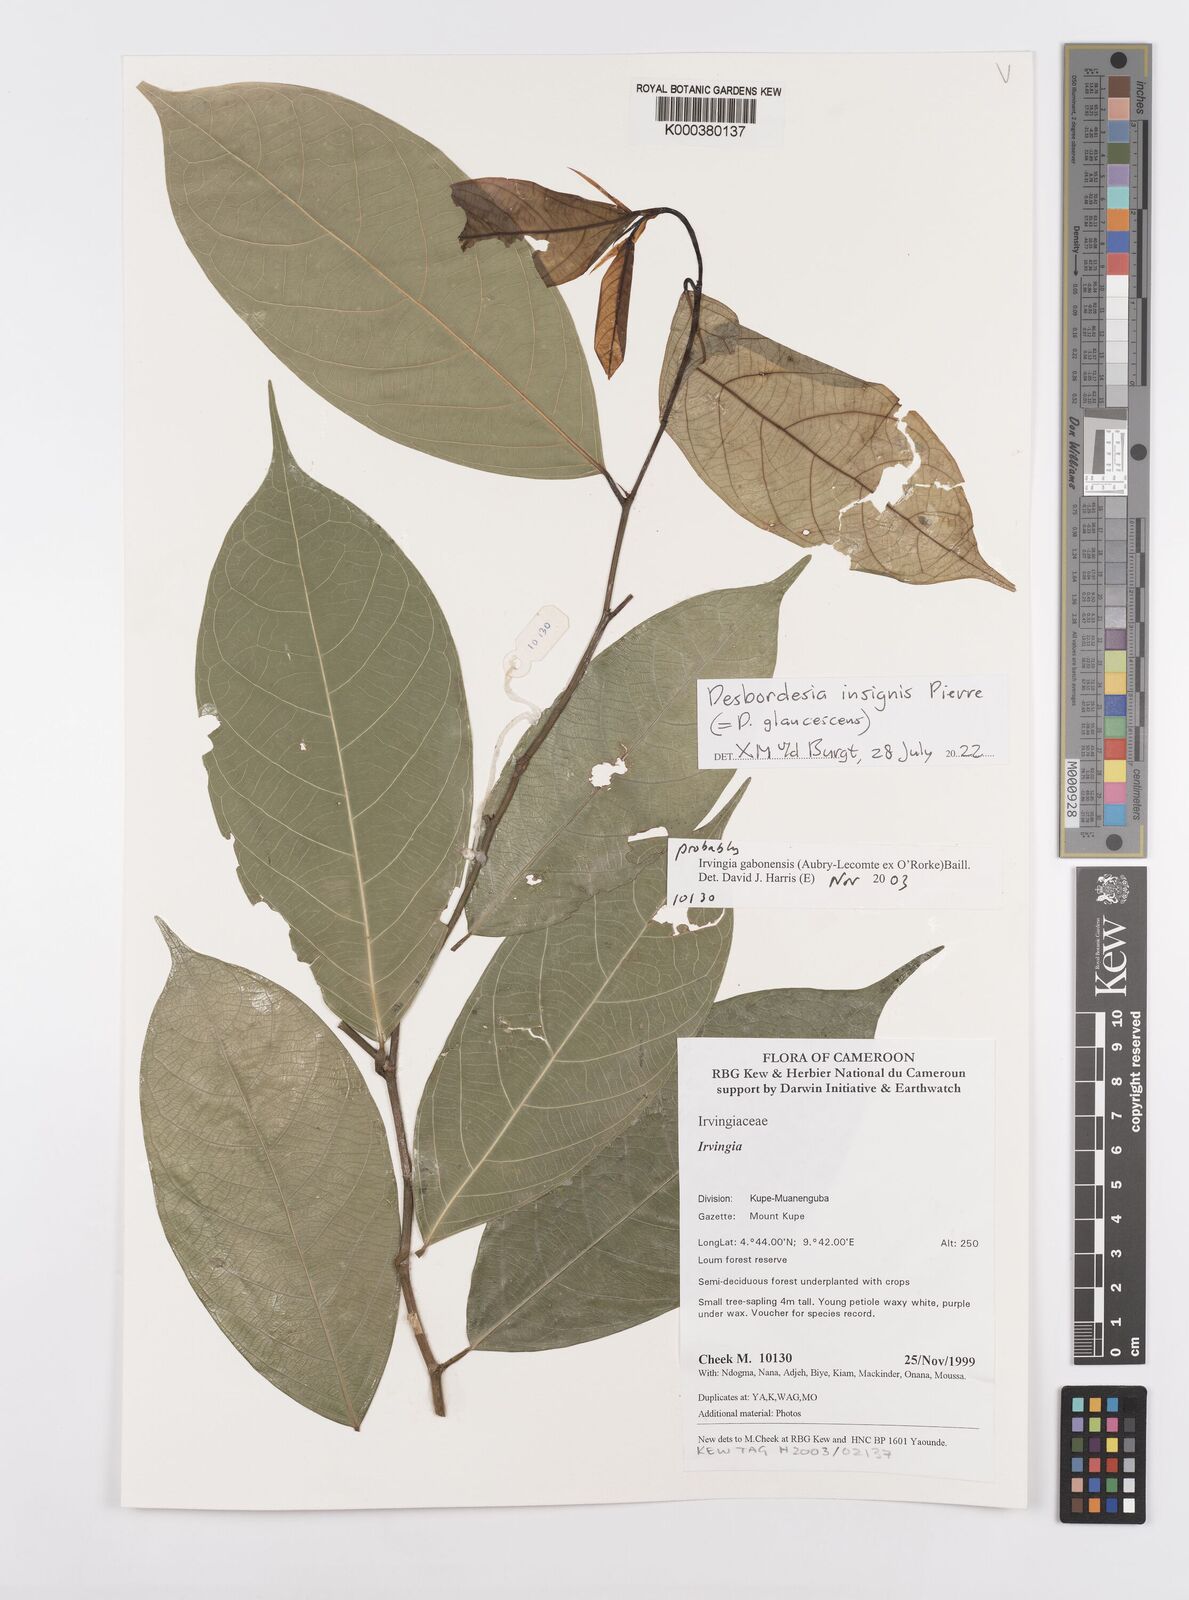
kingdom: Plantae
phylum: Tracheophyta
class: Magnoliopsida
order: Malpighiales
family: Irvingiaceae
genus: Irvingia
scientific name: Irvingia gabonensis
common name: Rainy season bush-mango
